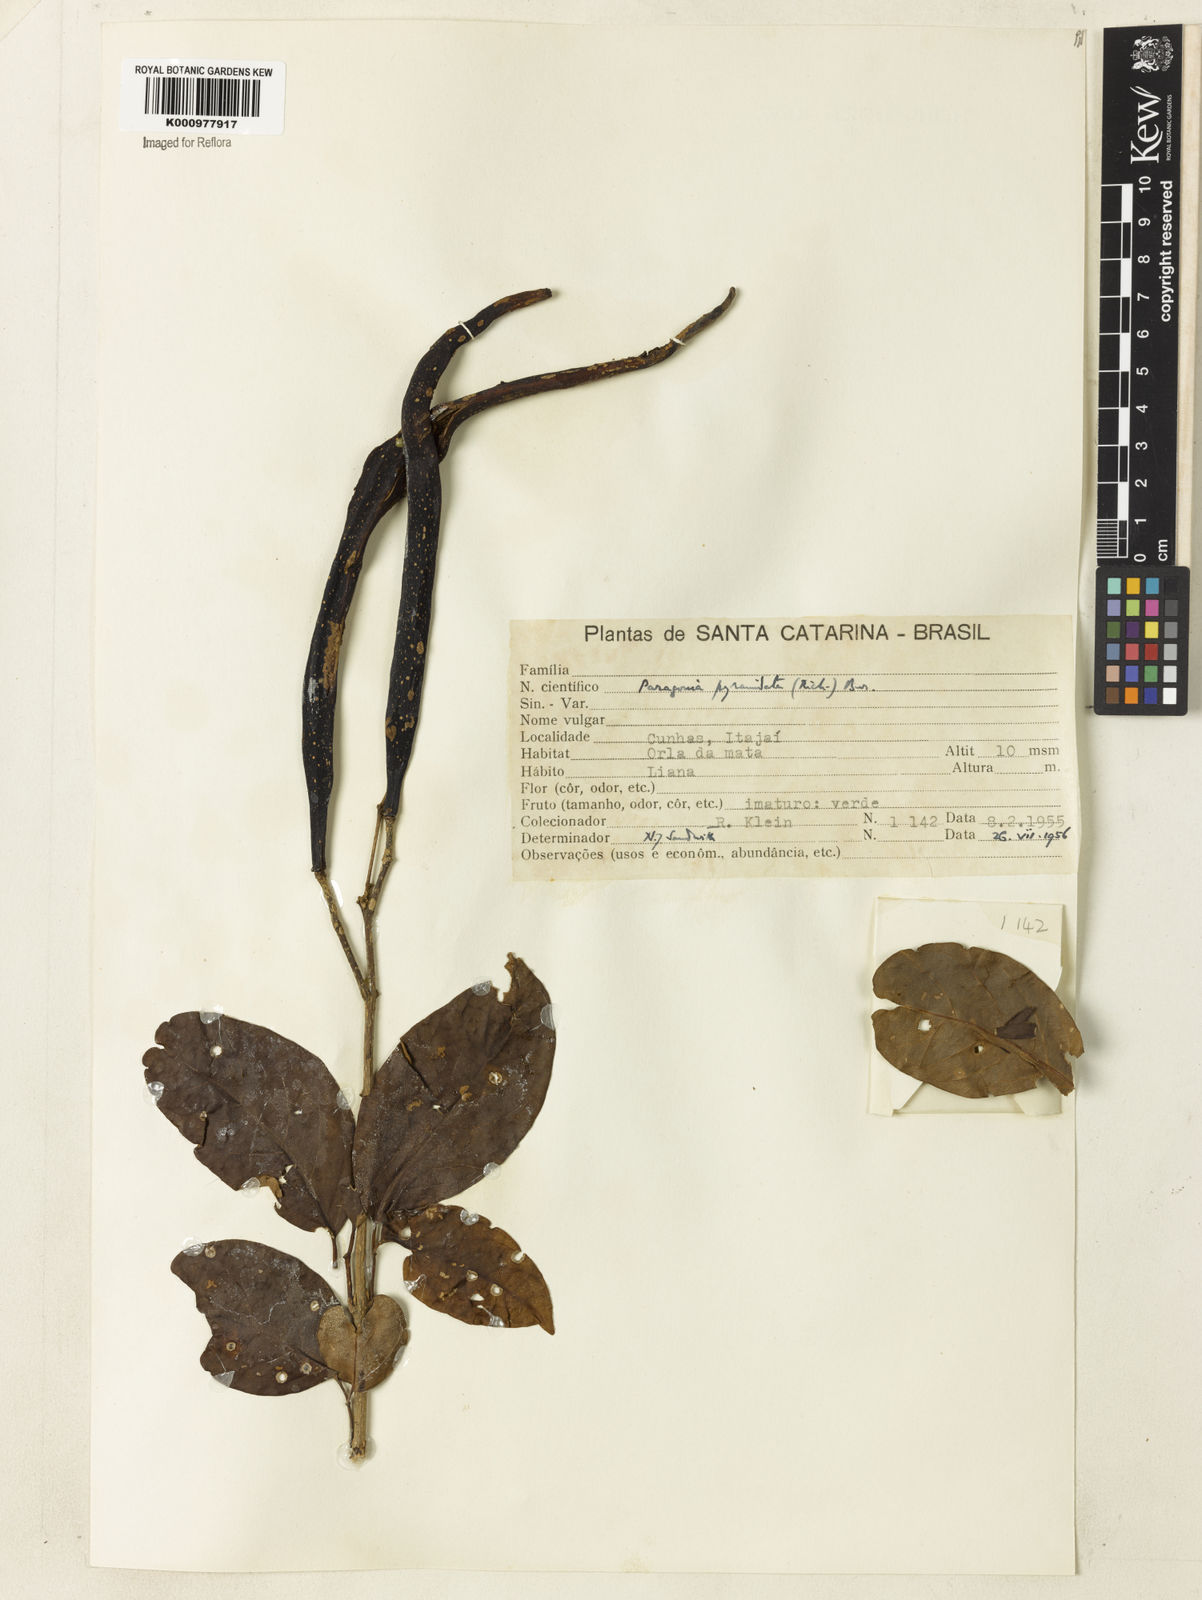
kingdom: Plantae
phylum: Tracheophyta
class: Magnoliopsida
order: Lamiales
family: Bignoniaceae
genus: Tanaecium
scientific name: Tanaecium pyramidatum
